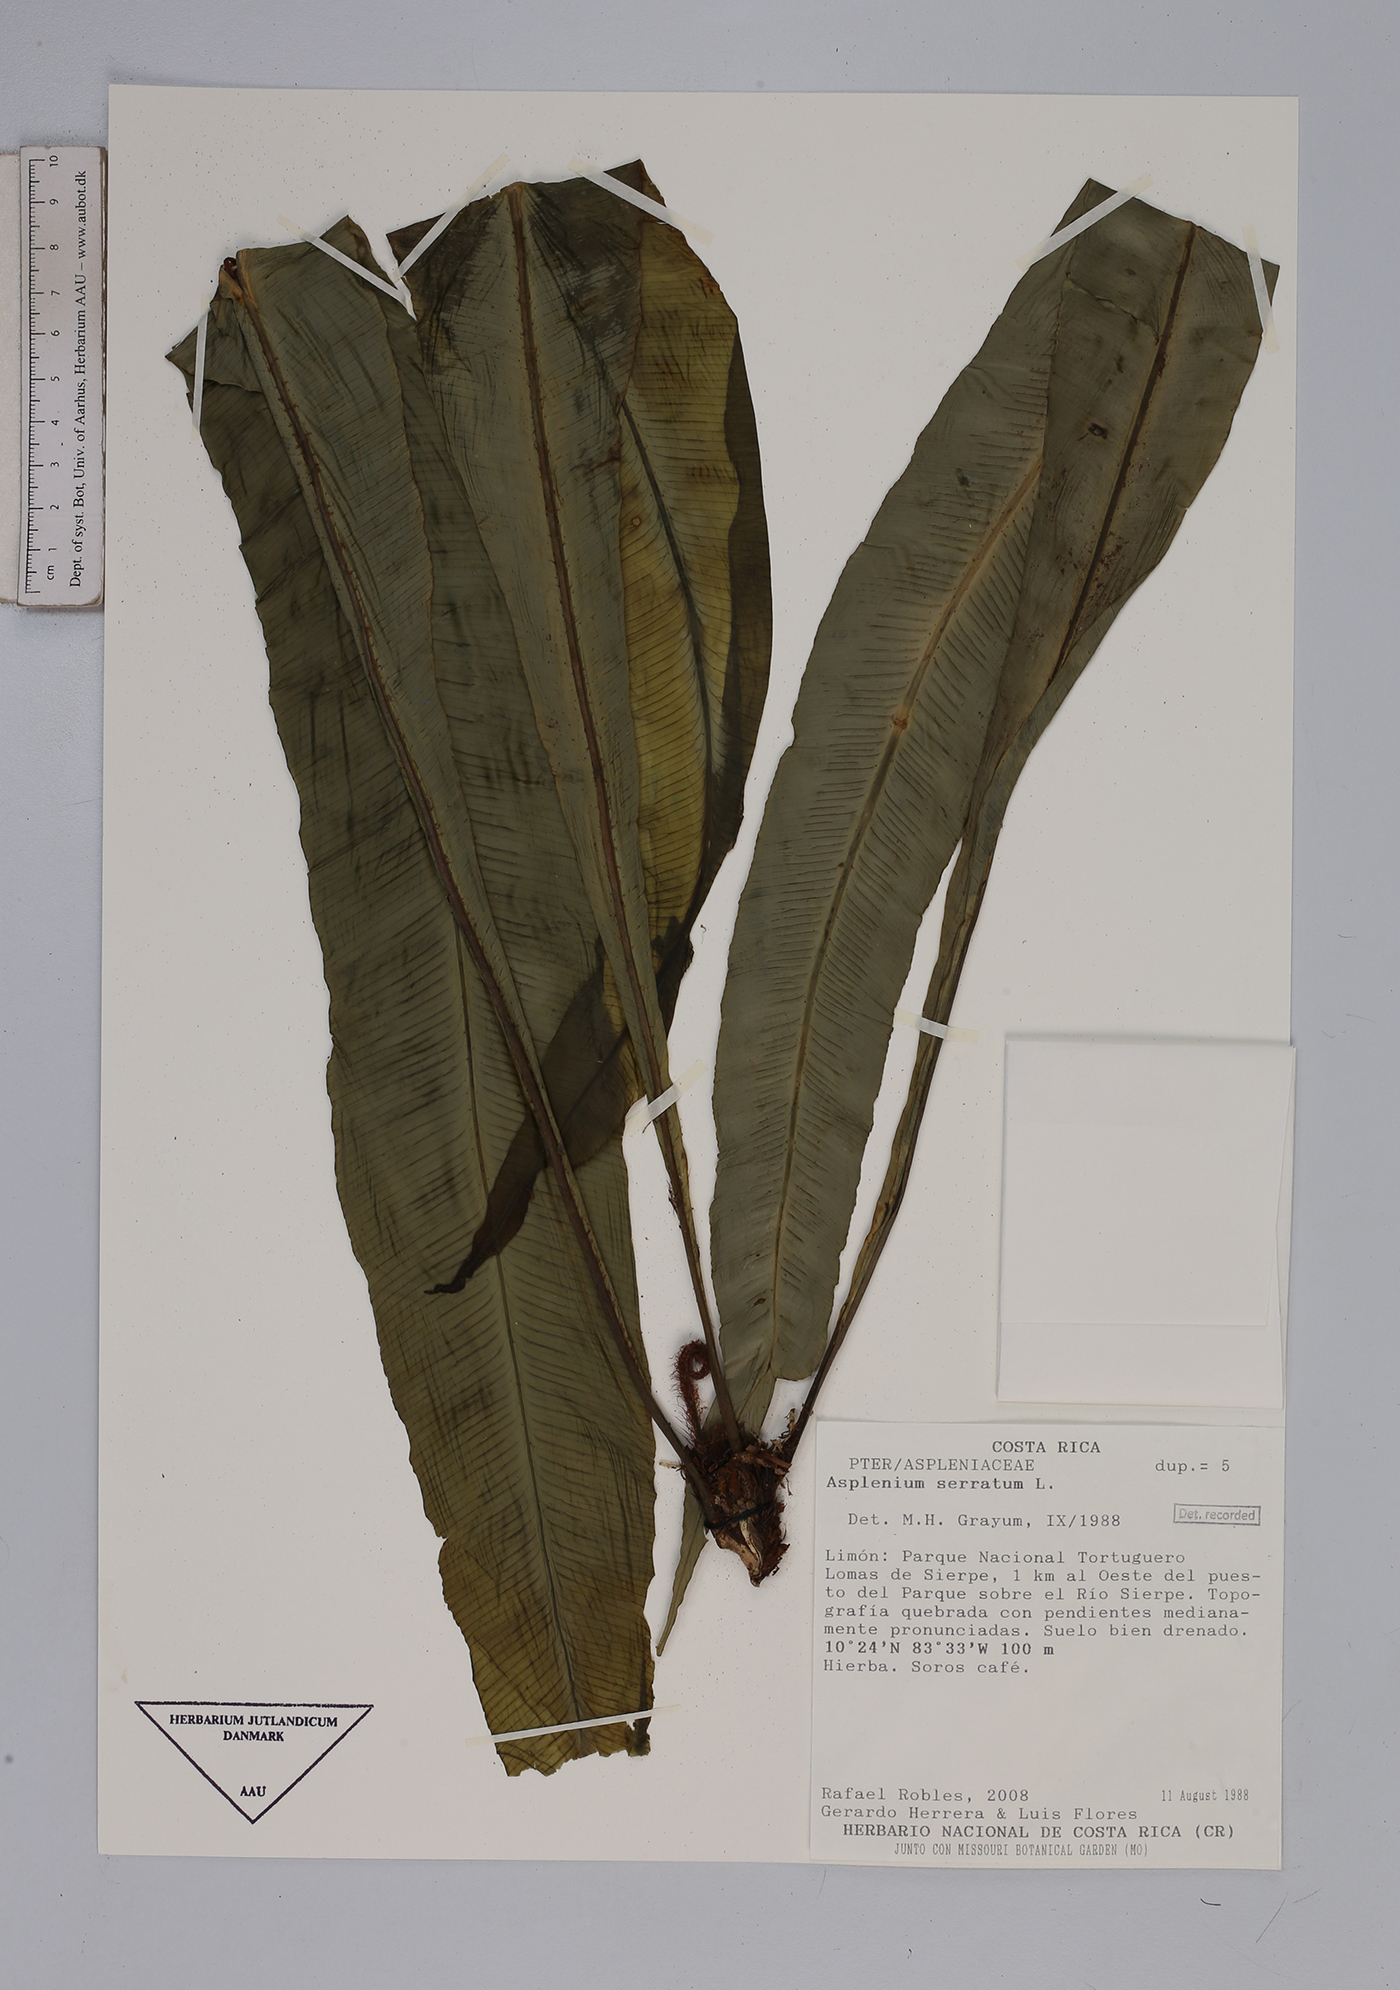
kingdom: Plantae
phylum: Tracheophyta
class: Polypodiopsida
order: Polypodiales
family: Aspleniaceae
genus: Asplenium
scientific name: Asplenium serratum
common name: Wild birdnest fern
